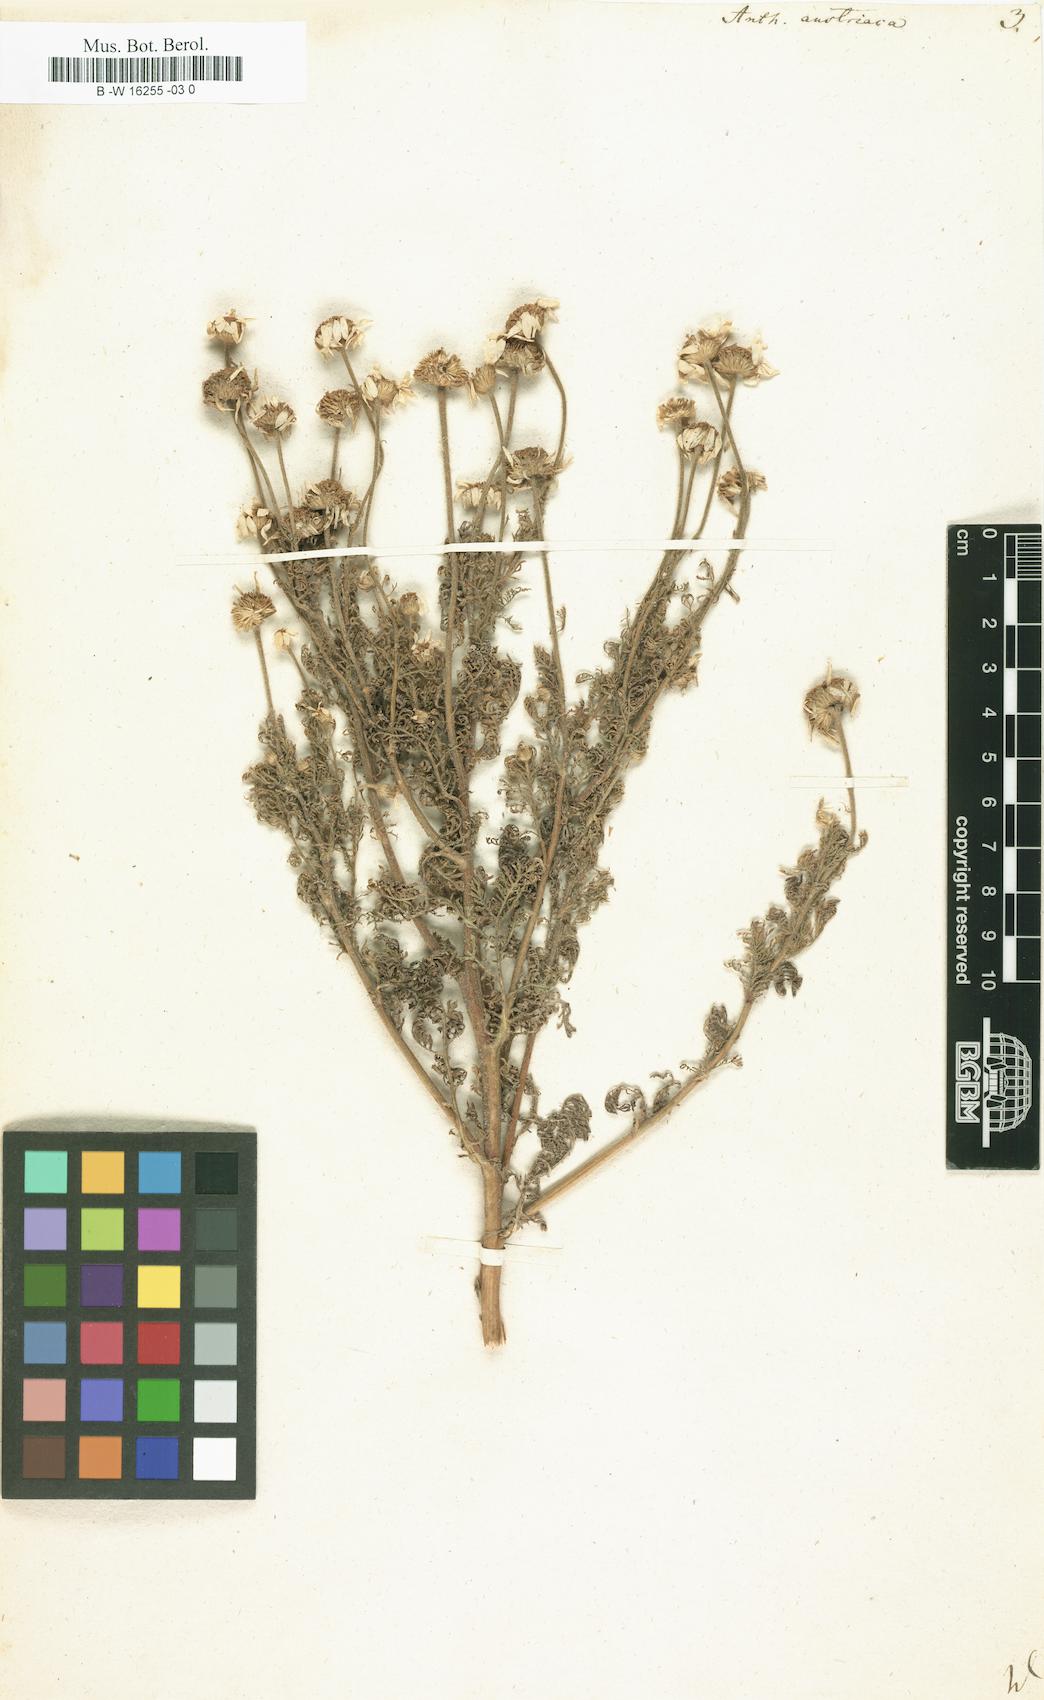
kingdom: Plantae
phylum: Tracheophyta
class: Magnoliopsida
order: Asterales
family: Asteraceae
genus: Cota
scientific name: Cota austriaca
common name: Austrian chamomile
